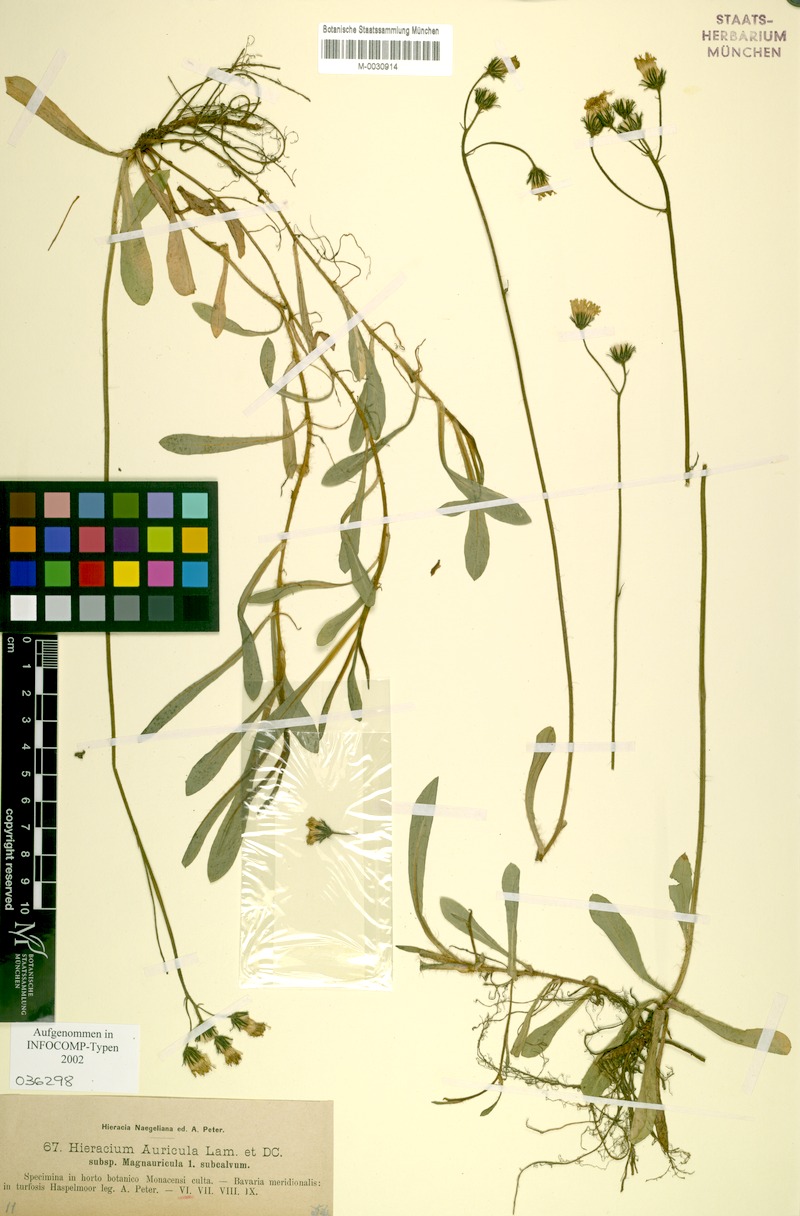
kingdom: Plantae
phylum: Tracheophyta
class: Magnoliopsida
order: Asterales
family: Asteraceae
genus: Pilosella
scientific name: Pilosella lactucella
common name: Glaucous fox-and-cubs
